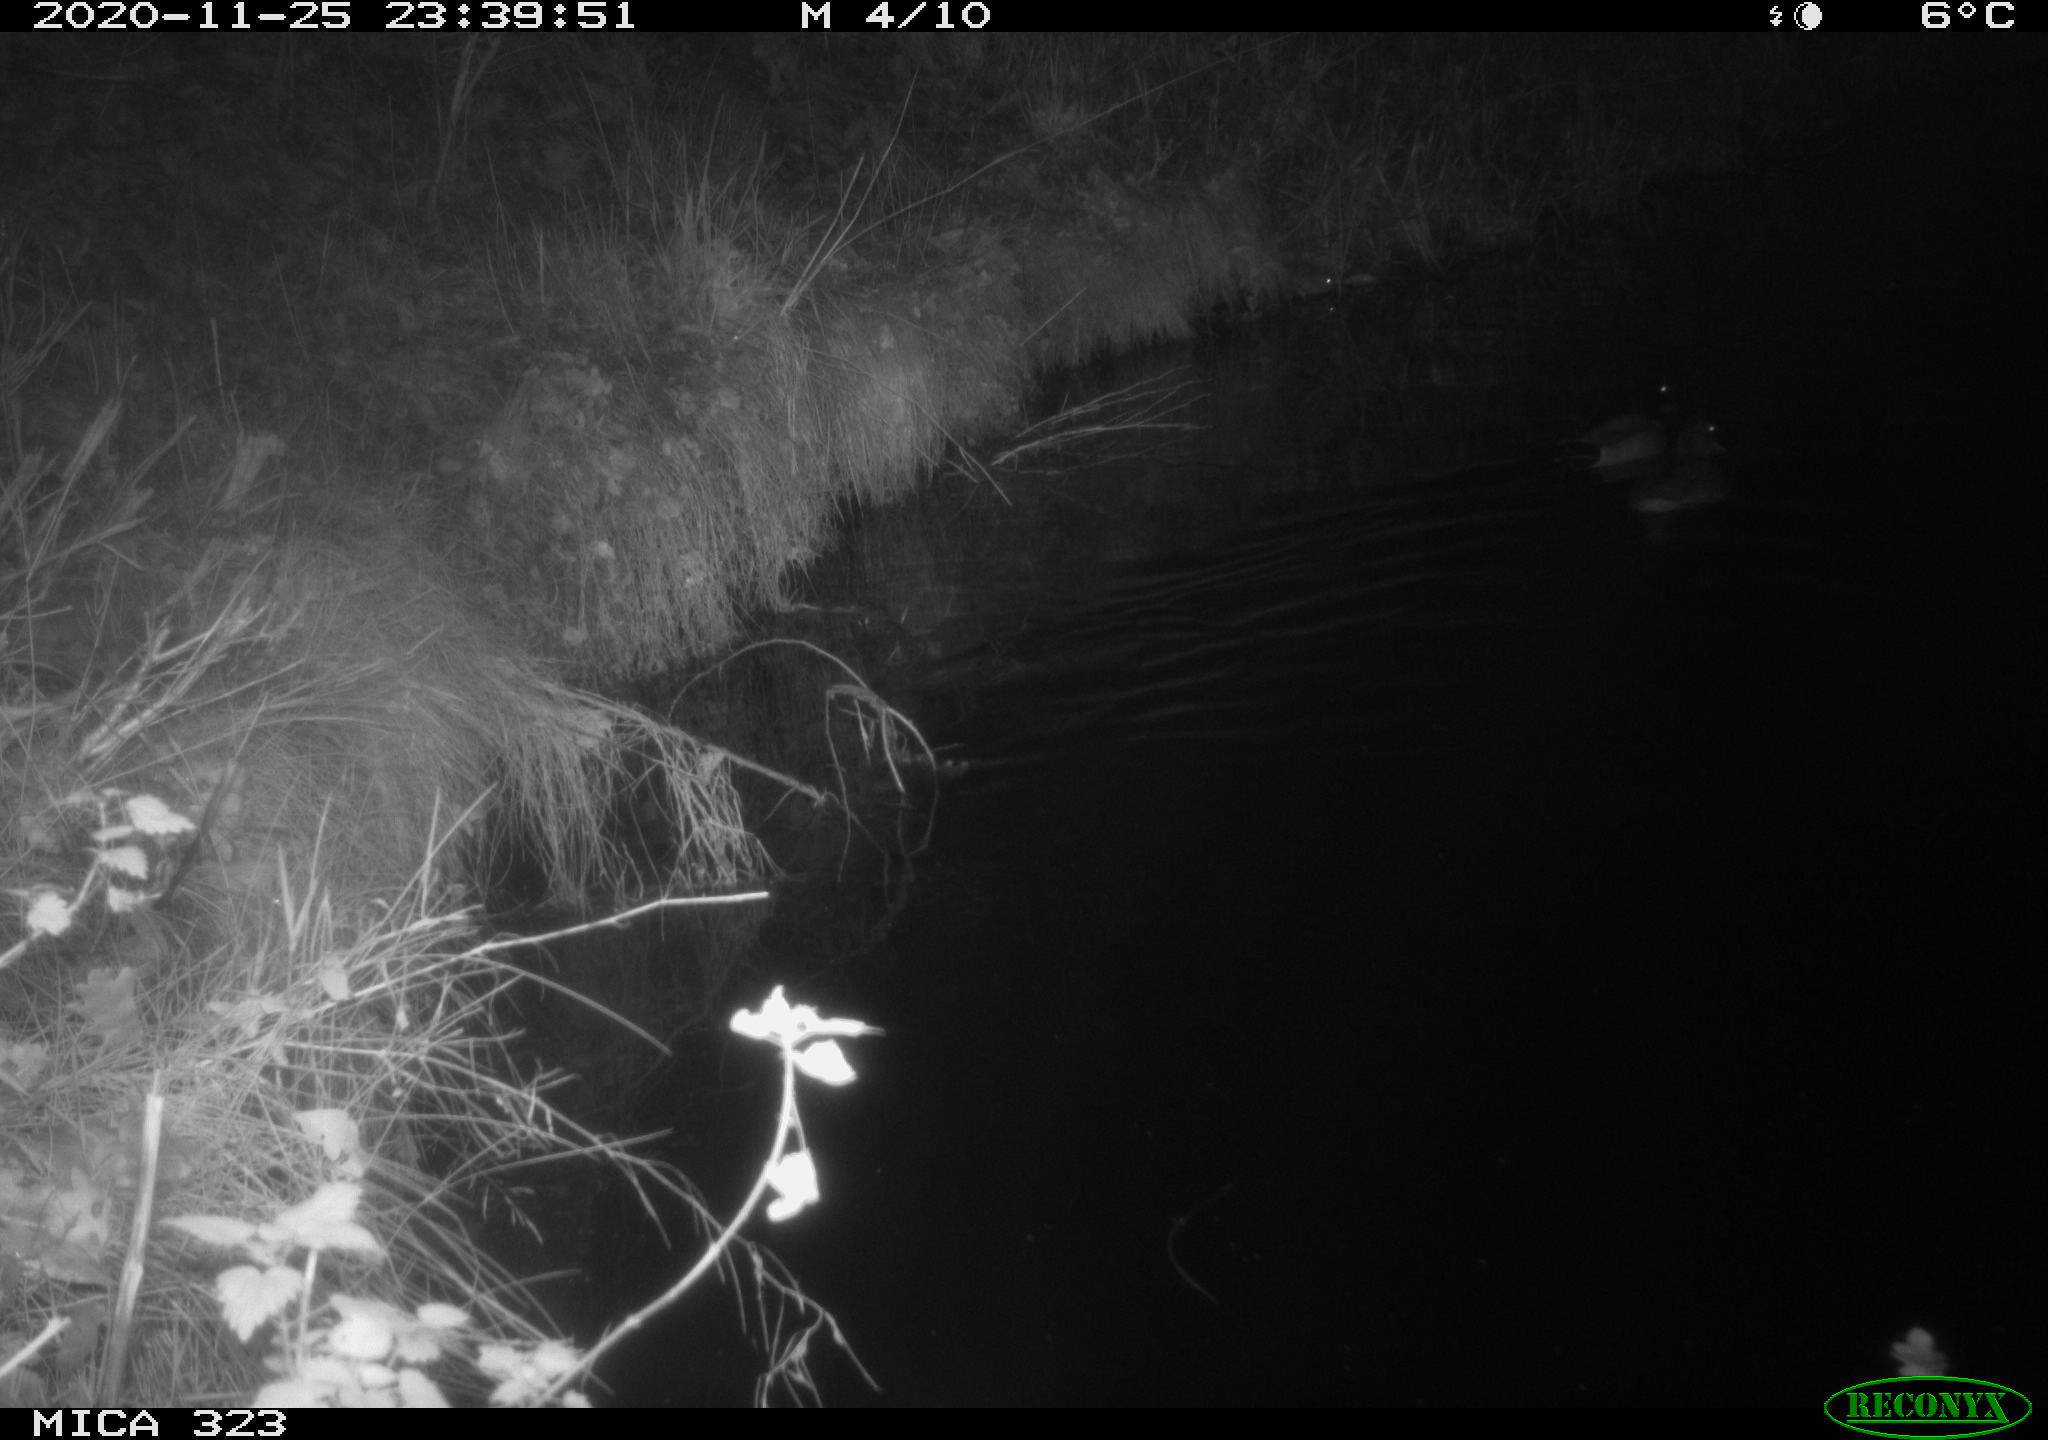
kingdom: Animalia
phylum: Chordata
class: Aves
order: Anseriformes
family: Anatidae
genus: Anas
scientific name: Anas platyrhynchos
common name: Mallard
